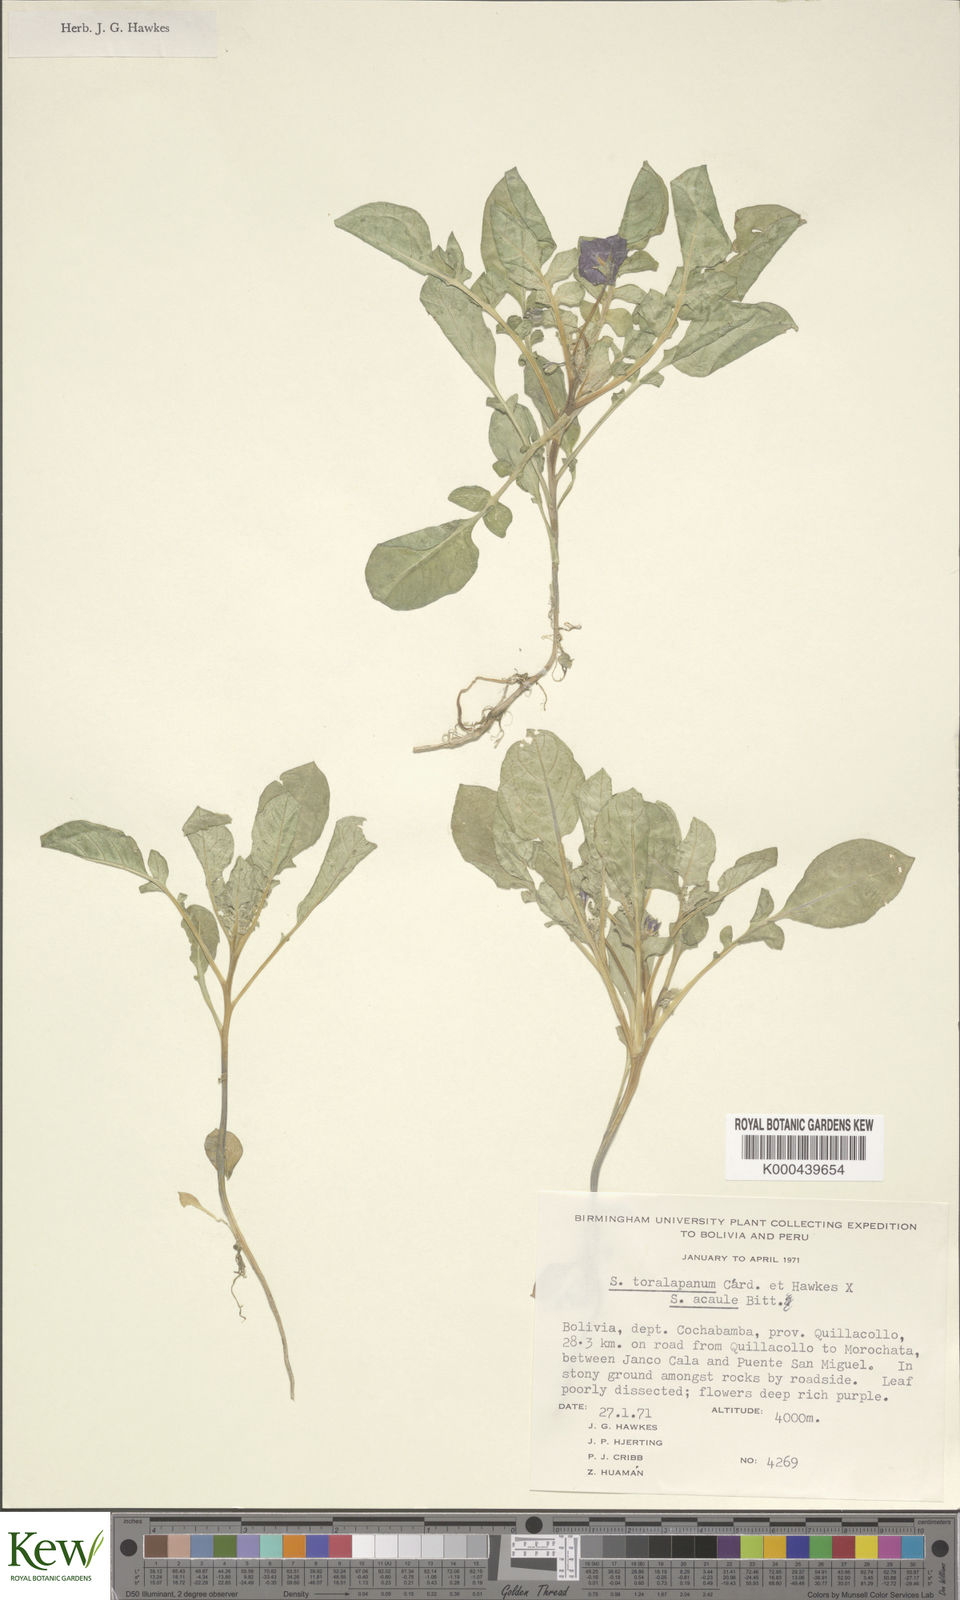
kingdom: Plantae
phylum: Tracheophyta
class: Magnoliopsida
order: Solanales
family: Solanaceae
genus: Solanum
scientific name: Solanum boliviense
